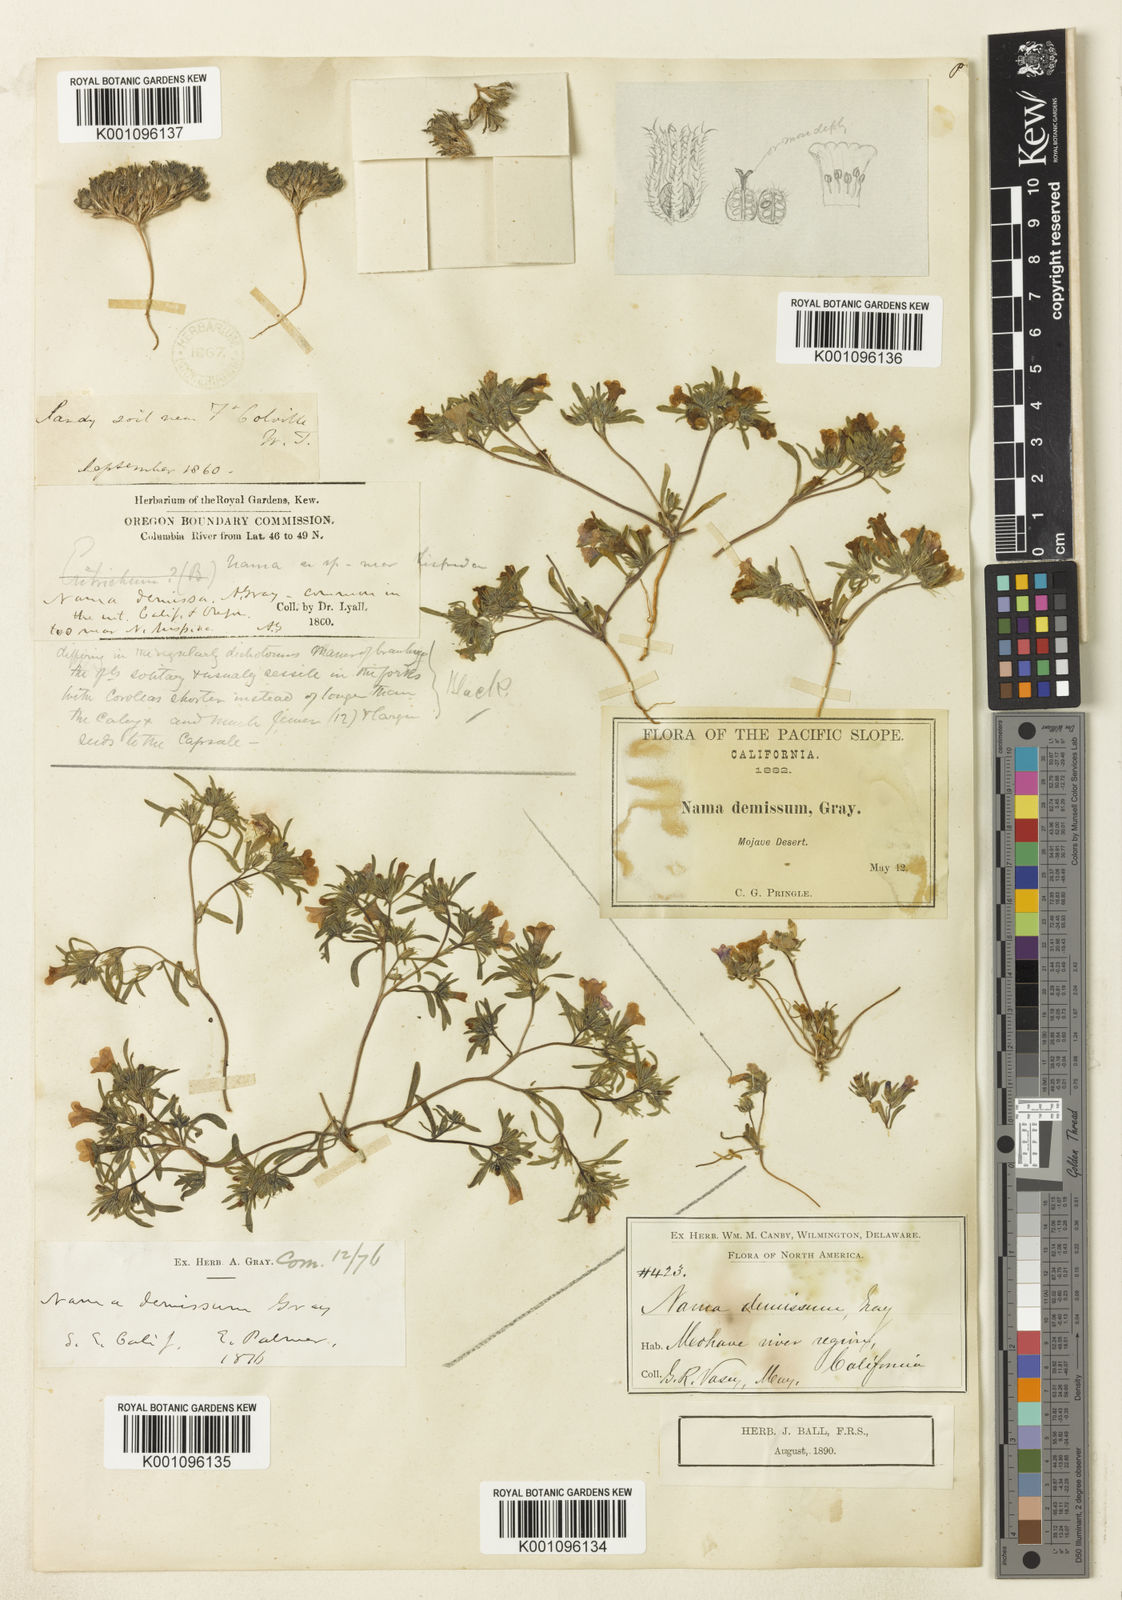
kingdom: Plantae
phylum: Tracheophyta
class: Magnoliopsida
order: Boraginales
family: Namaceae
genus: Nama
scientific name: Nama demissa
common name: Leafy nama
